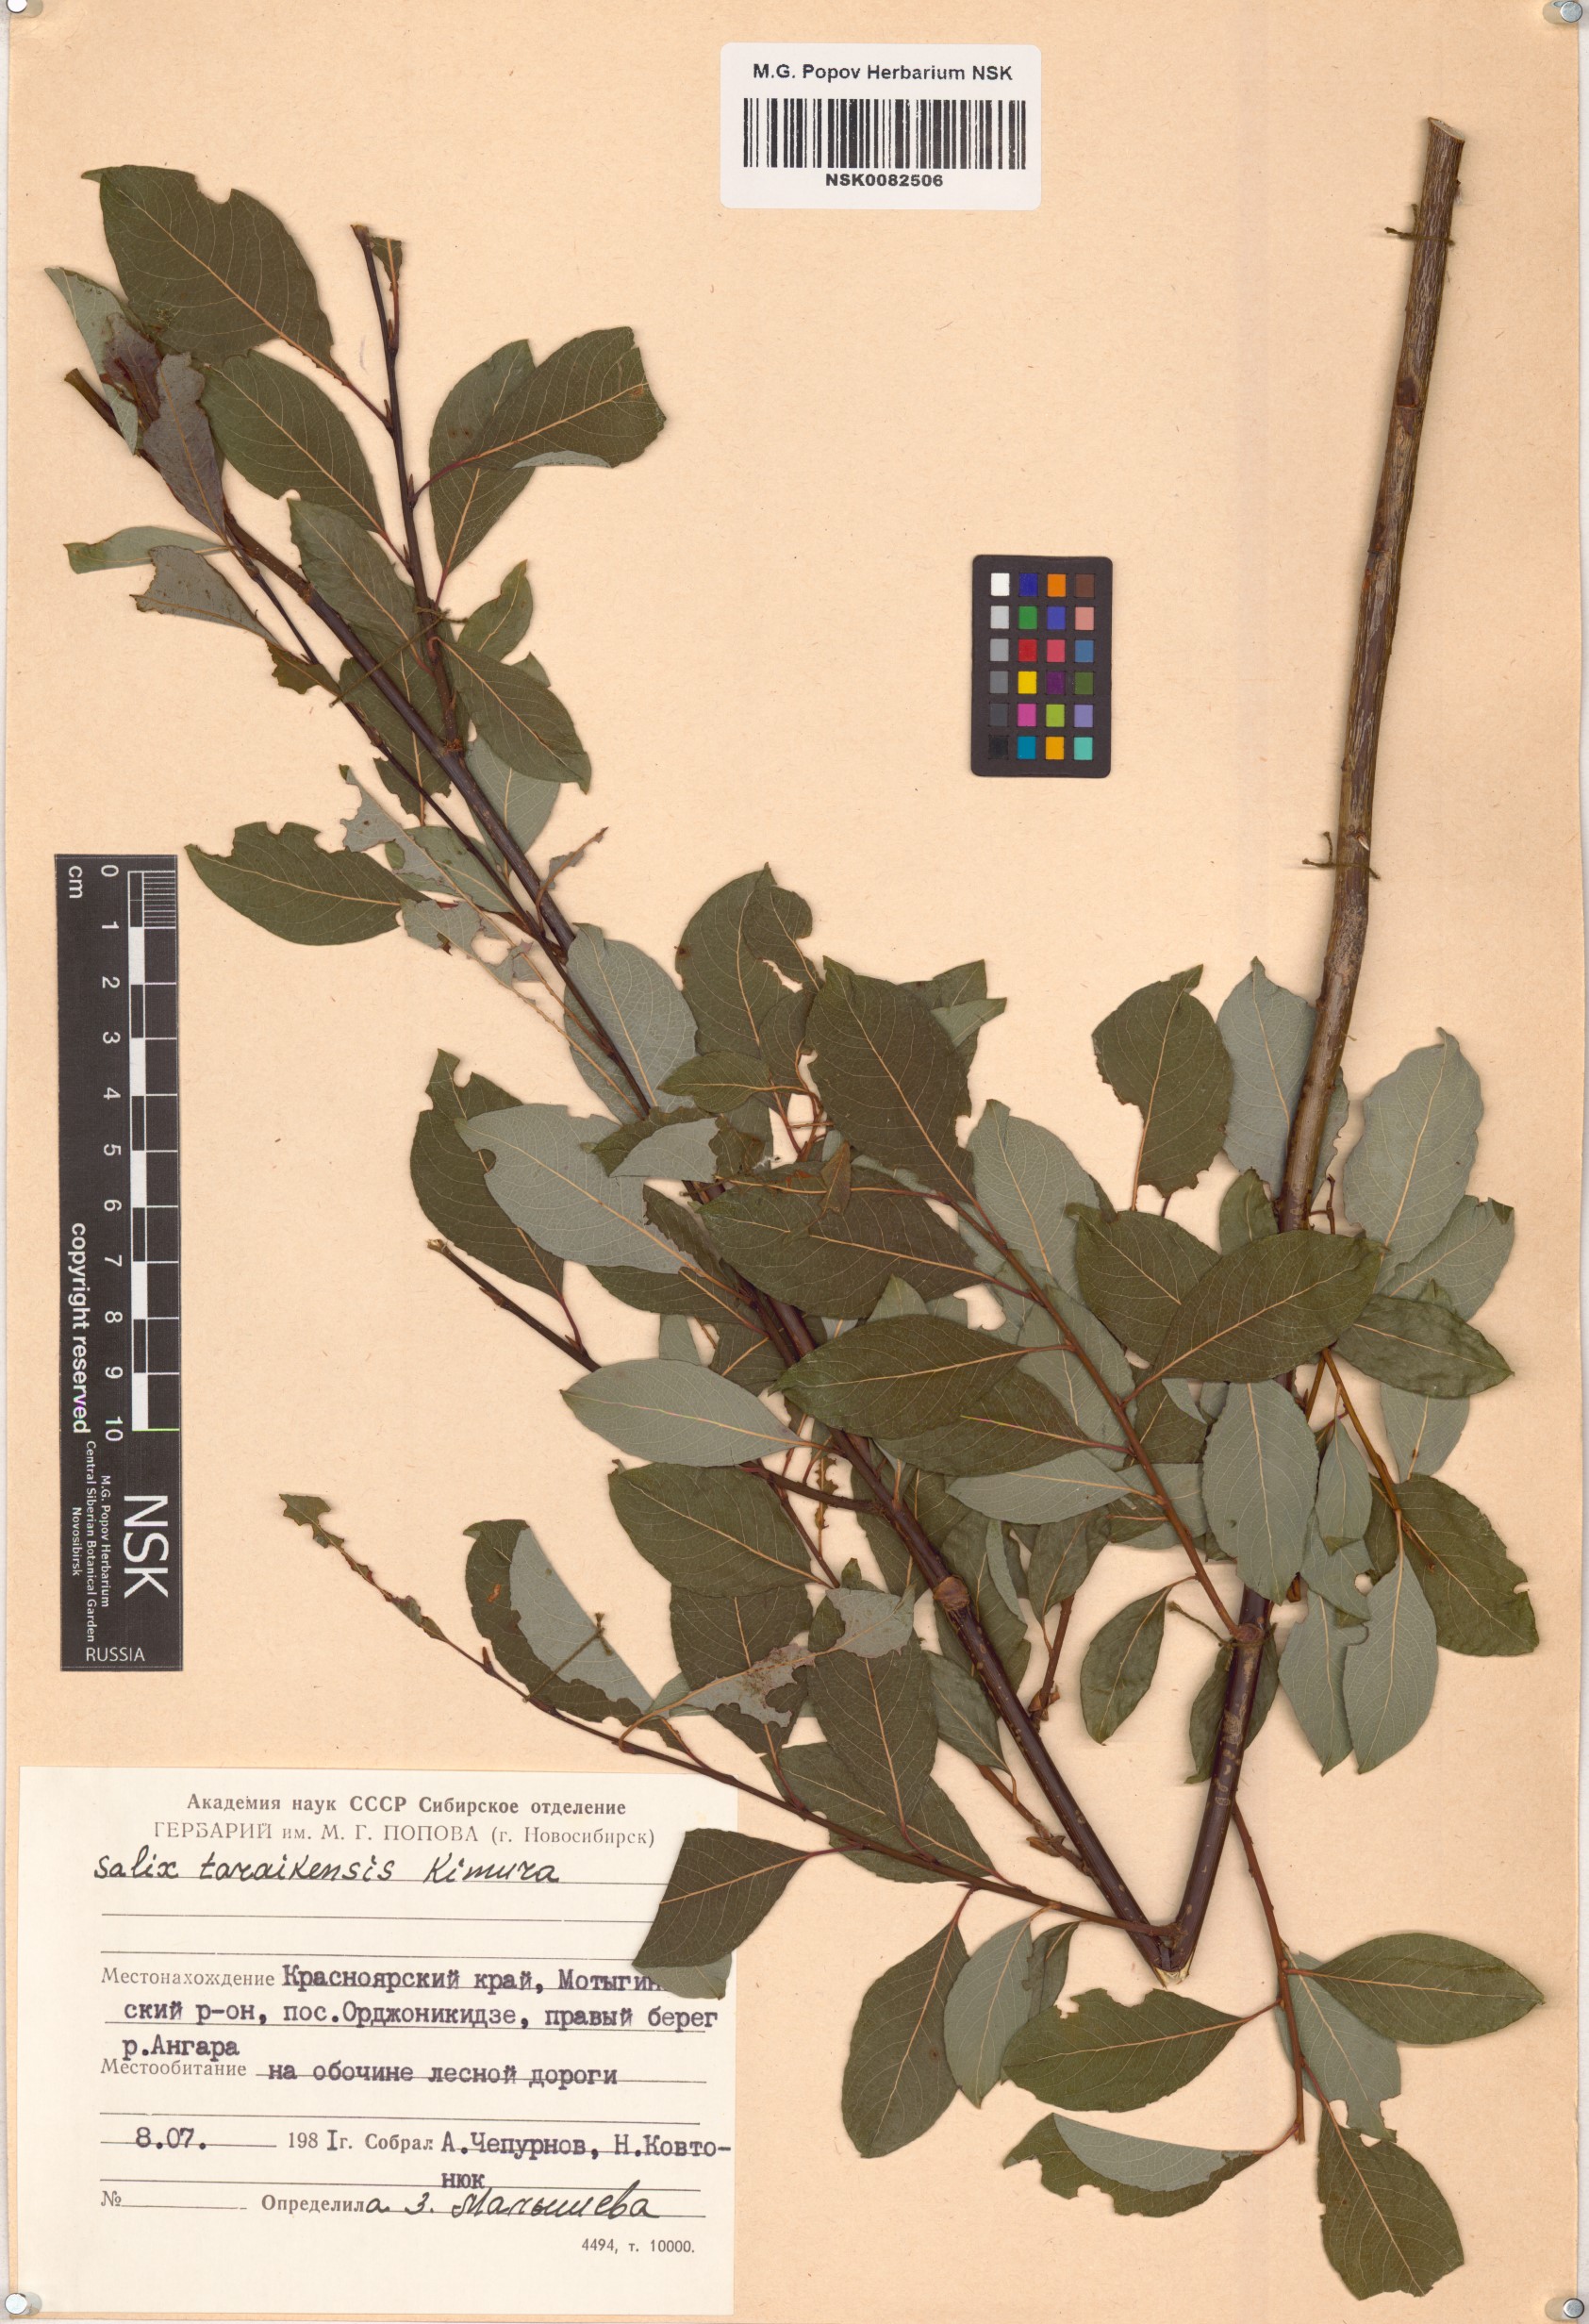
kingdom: Plantae
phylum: Tracheophyta
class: Magnoliopsida
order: Malpighiales
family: Salicaceae
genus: Salix
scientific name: Salix taraikensis
